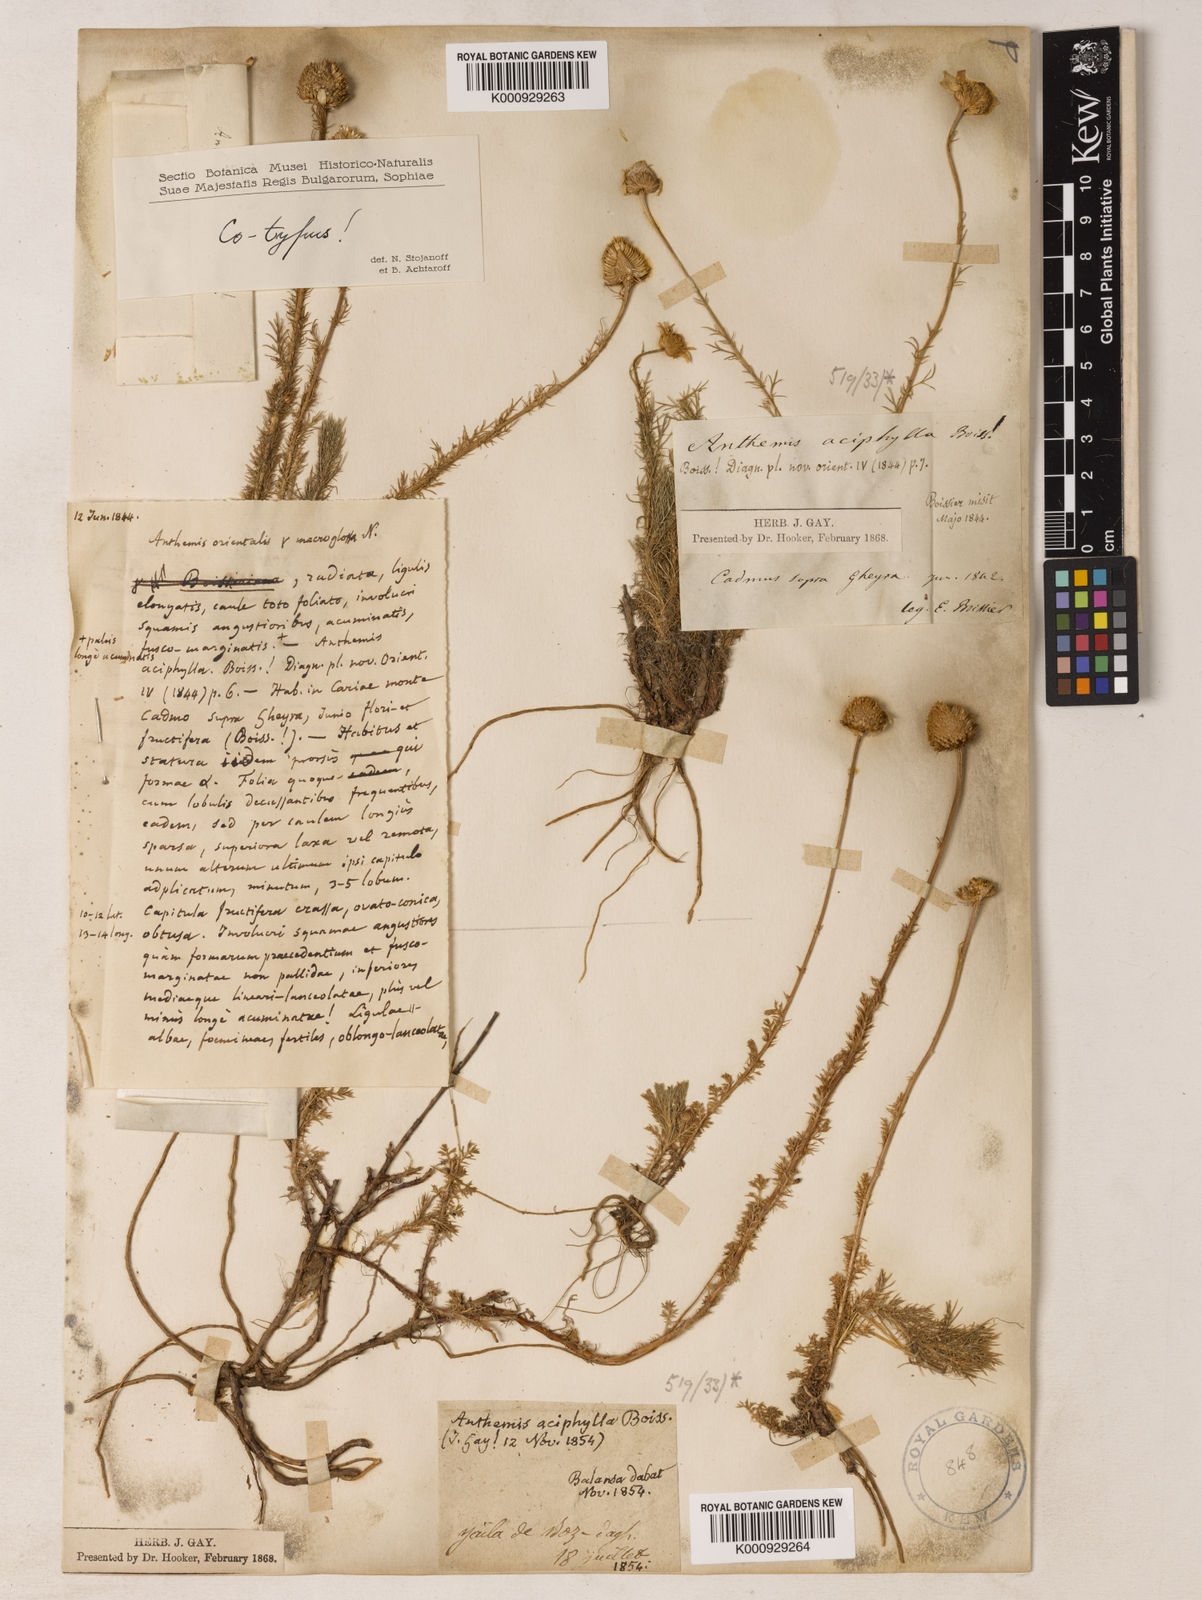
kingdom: Plantae
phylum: Tracheophyta
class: Magnoliopsida
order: Asterales
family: Asteraceae
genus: Anthemis
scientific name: Anthemis aciphylla
